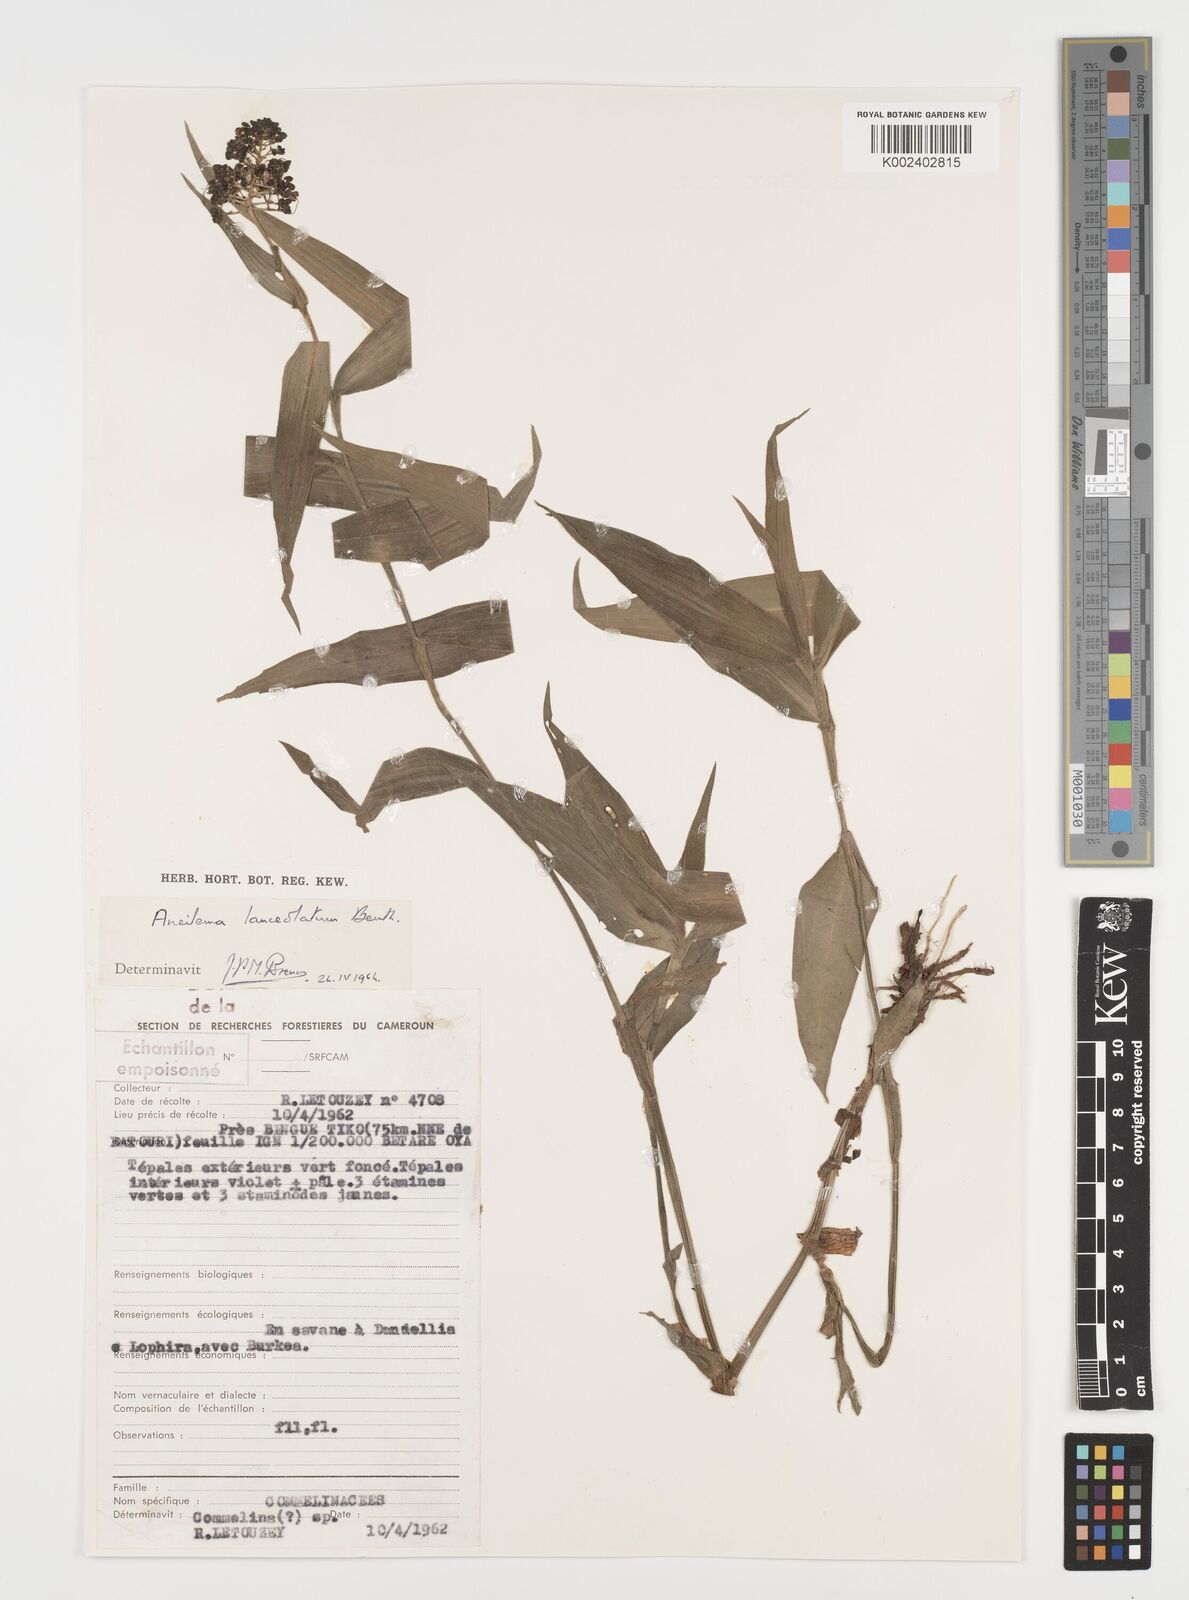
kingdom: Plantae
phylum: Tracheophyta
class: Liliopsida
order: Commelinales
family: Commelinaceae
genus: Aneilema
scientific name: Aneilema lanceolatum
